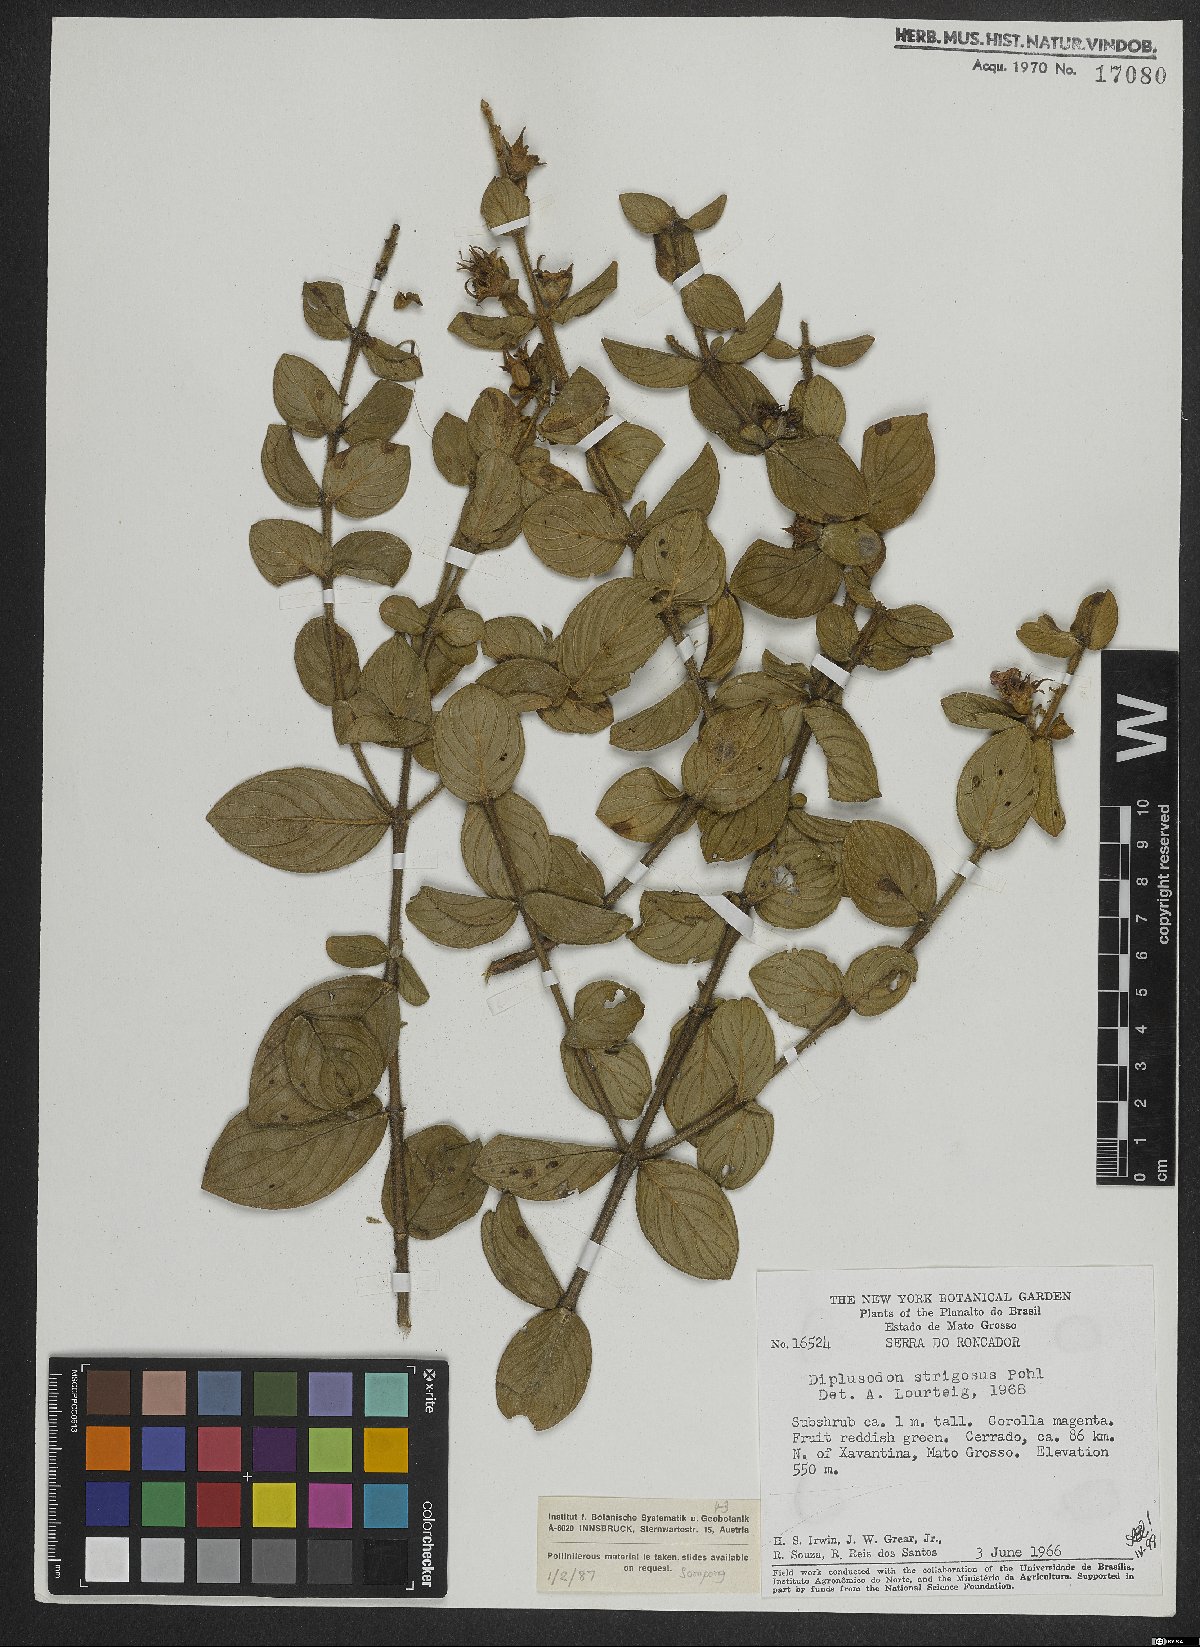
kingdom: Plantae
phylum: Tracheophyta
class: Magnoliopsida
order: Myrtales
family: Lythraceae
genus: Diplusodon
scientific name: Diplusodon strigosus
